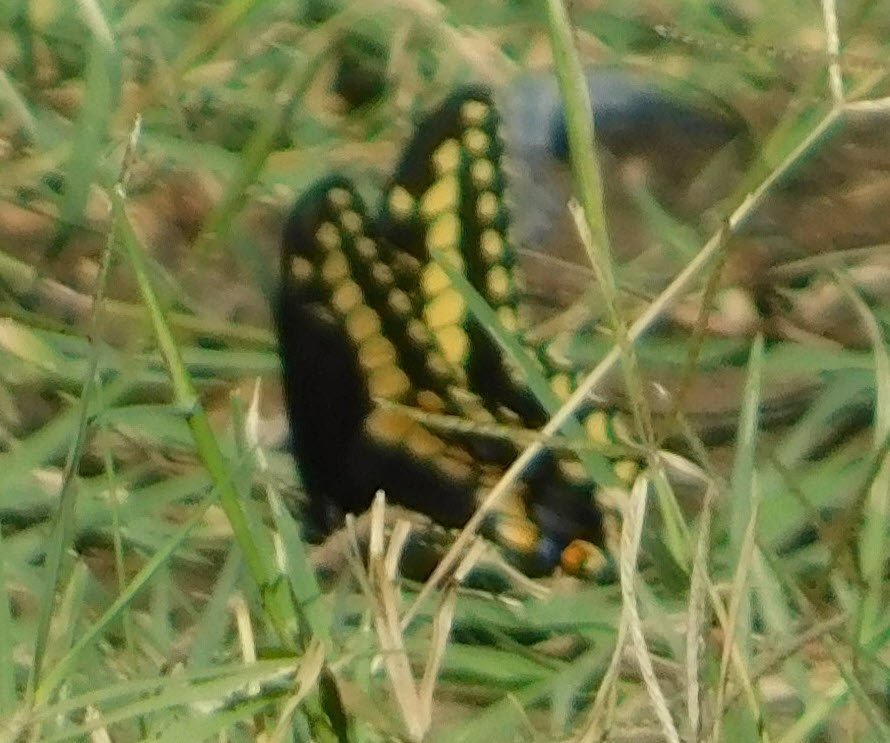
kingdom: Animalia
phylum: Arthropoda
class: Insecta
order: Lepidoptera
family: Papilionidae
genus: Papilio
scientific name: Papilio machaon
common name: Old World Swallowtail
